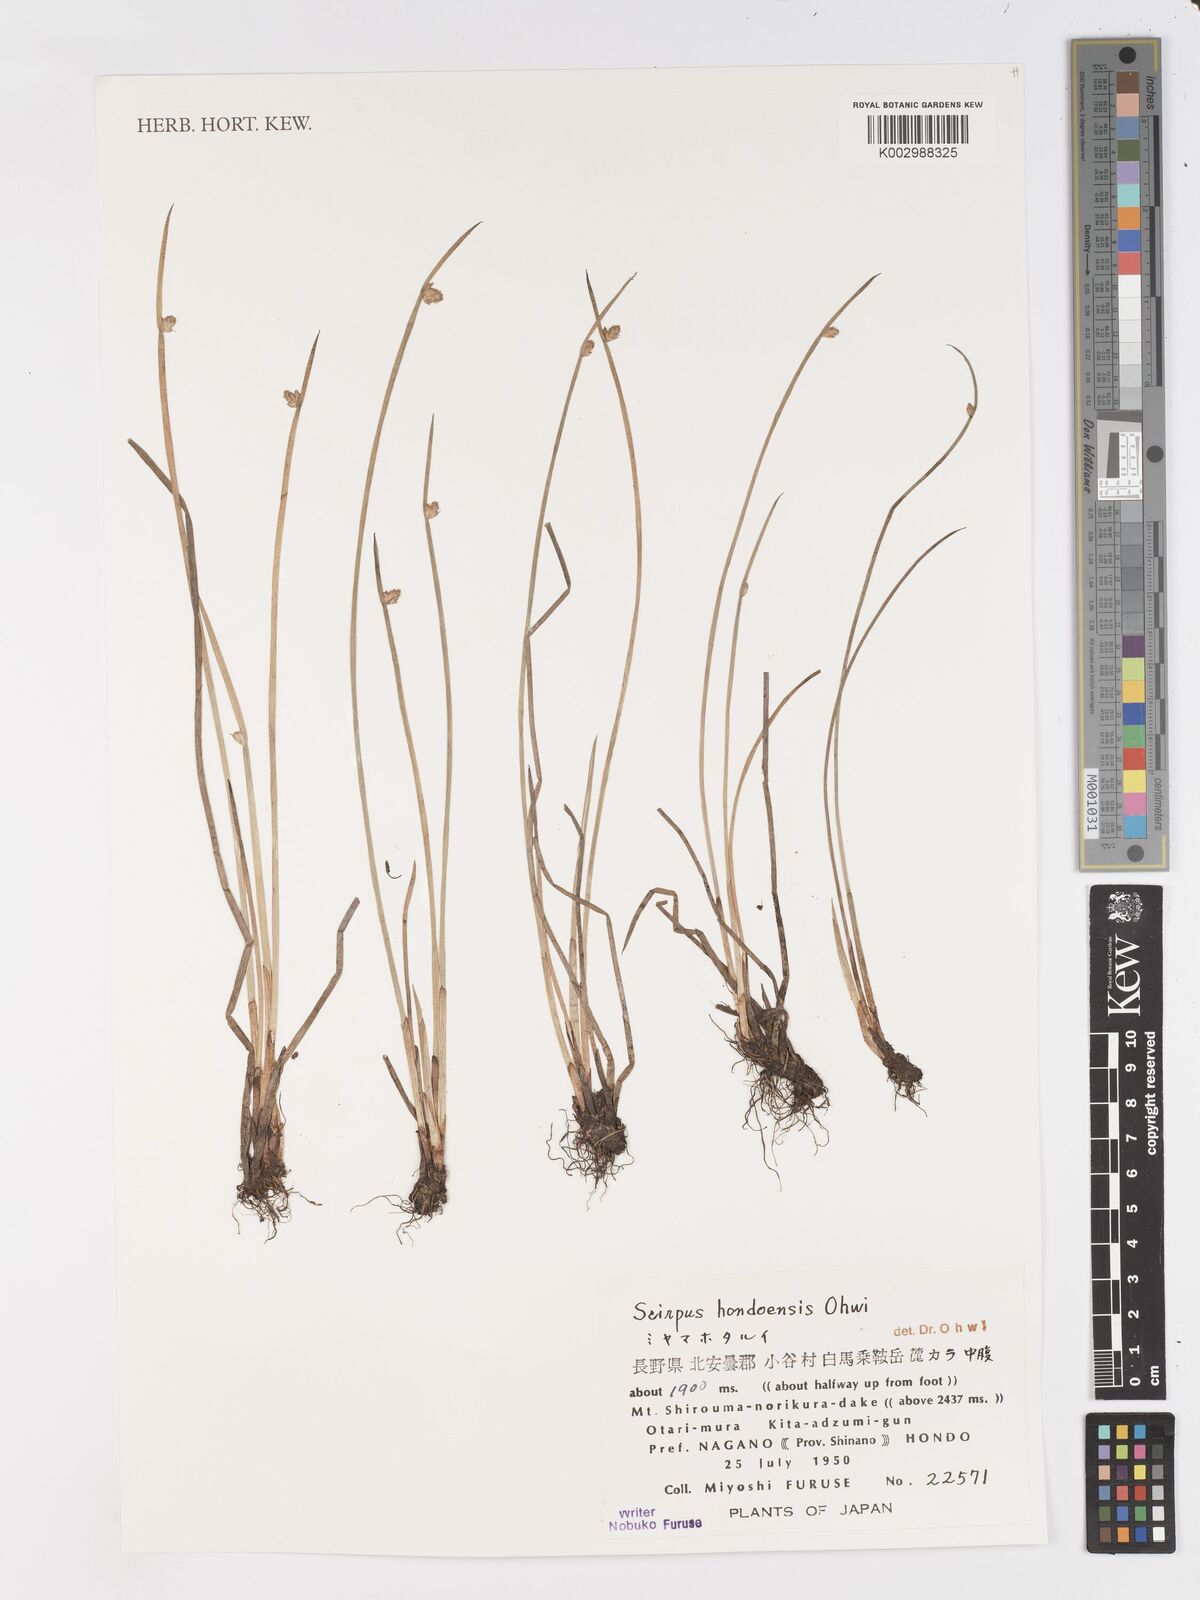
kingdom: Plantae
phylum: Tracheophyta
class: Liliopsida
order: Poales
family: Cyperaceae
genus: Schoenoplectiella
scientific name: Schoenoplectiella hondoensis
